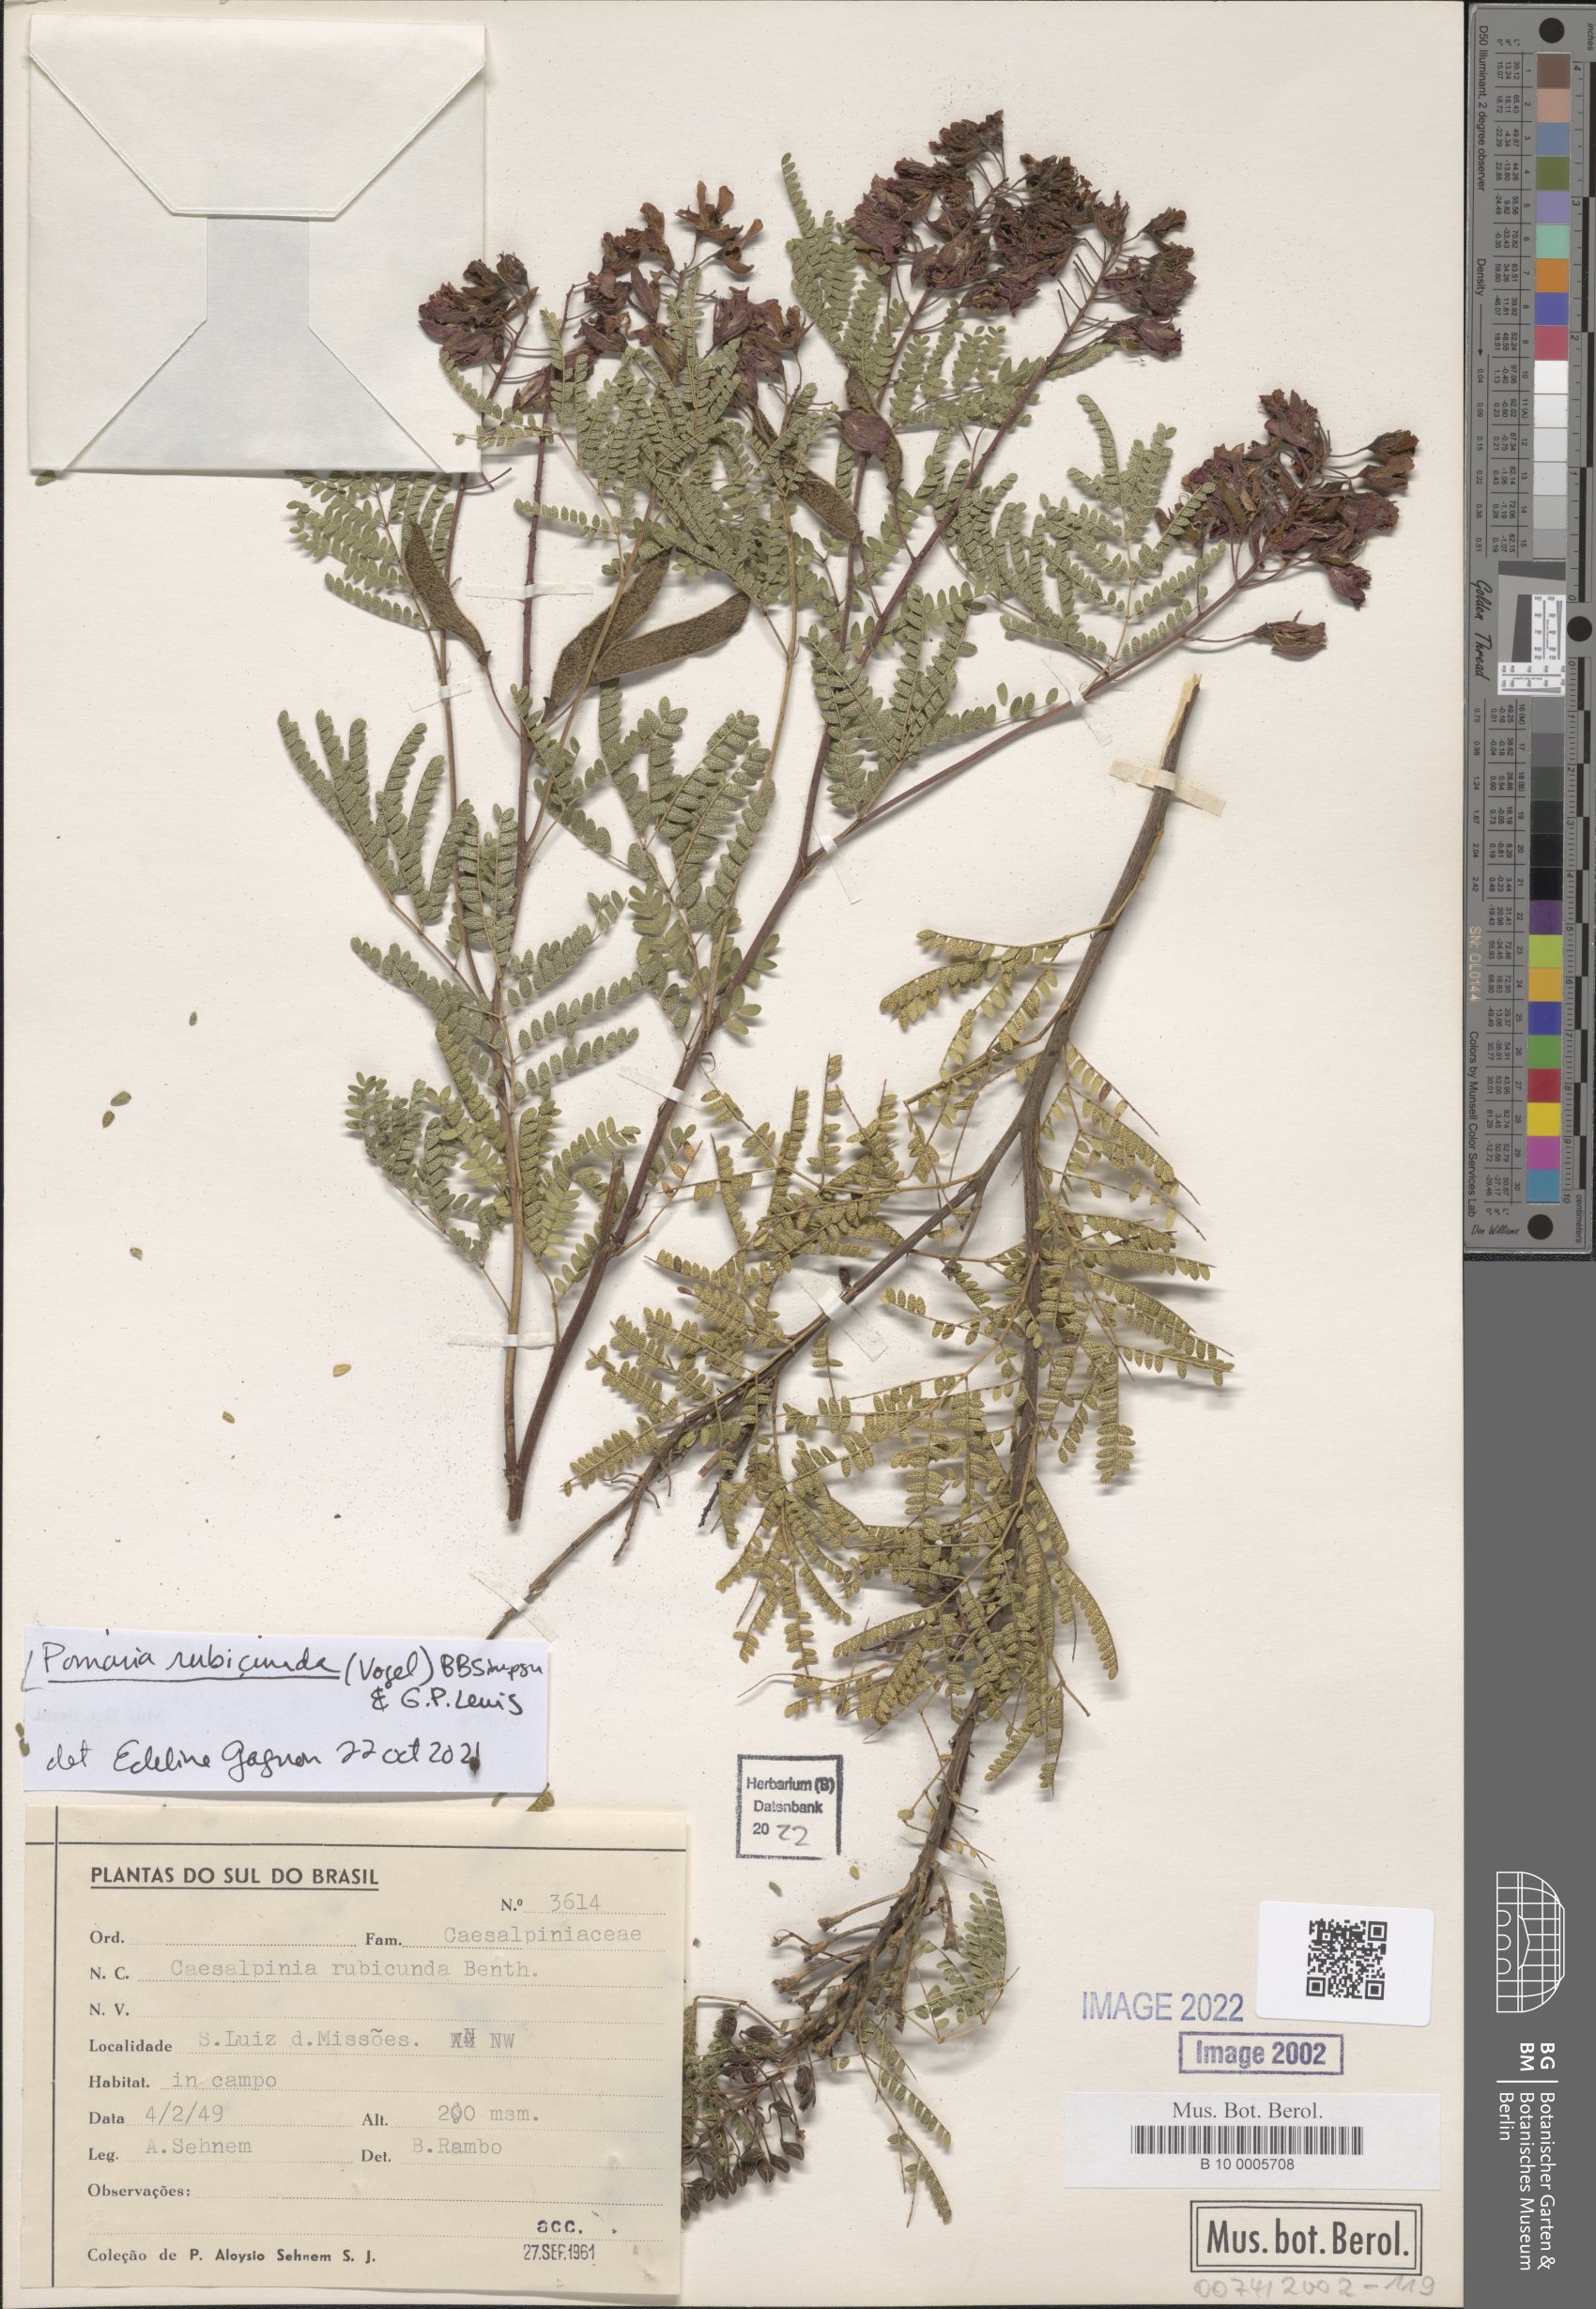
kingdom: Plantae
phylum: Tracheophyta
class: Magnoliopsida
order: Fabales
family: Fabaceae
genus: Pomaria
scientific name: Pomaria rubicunda
